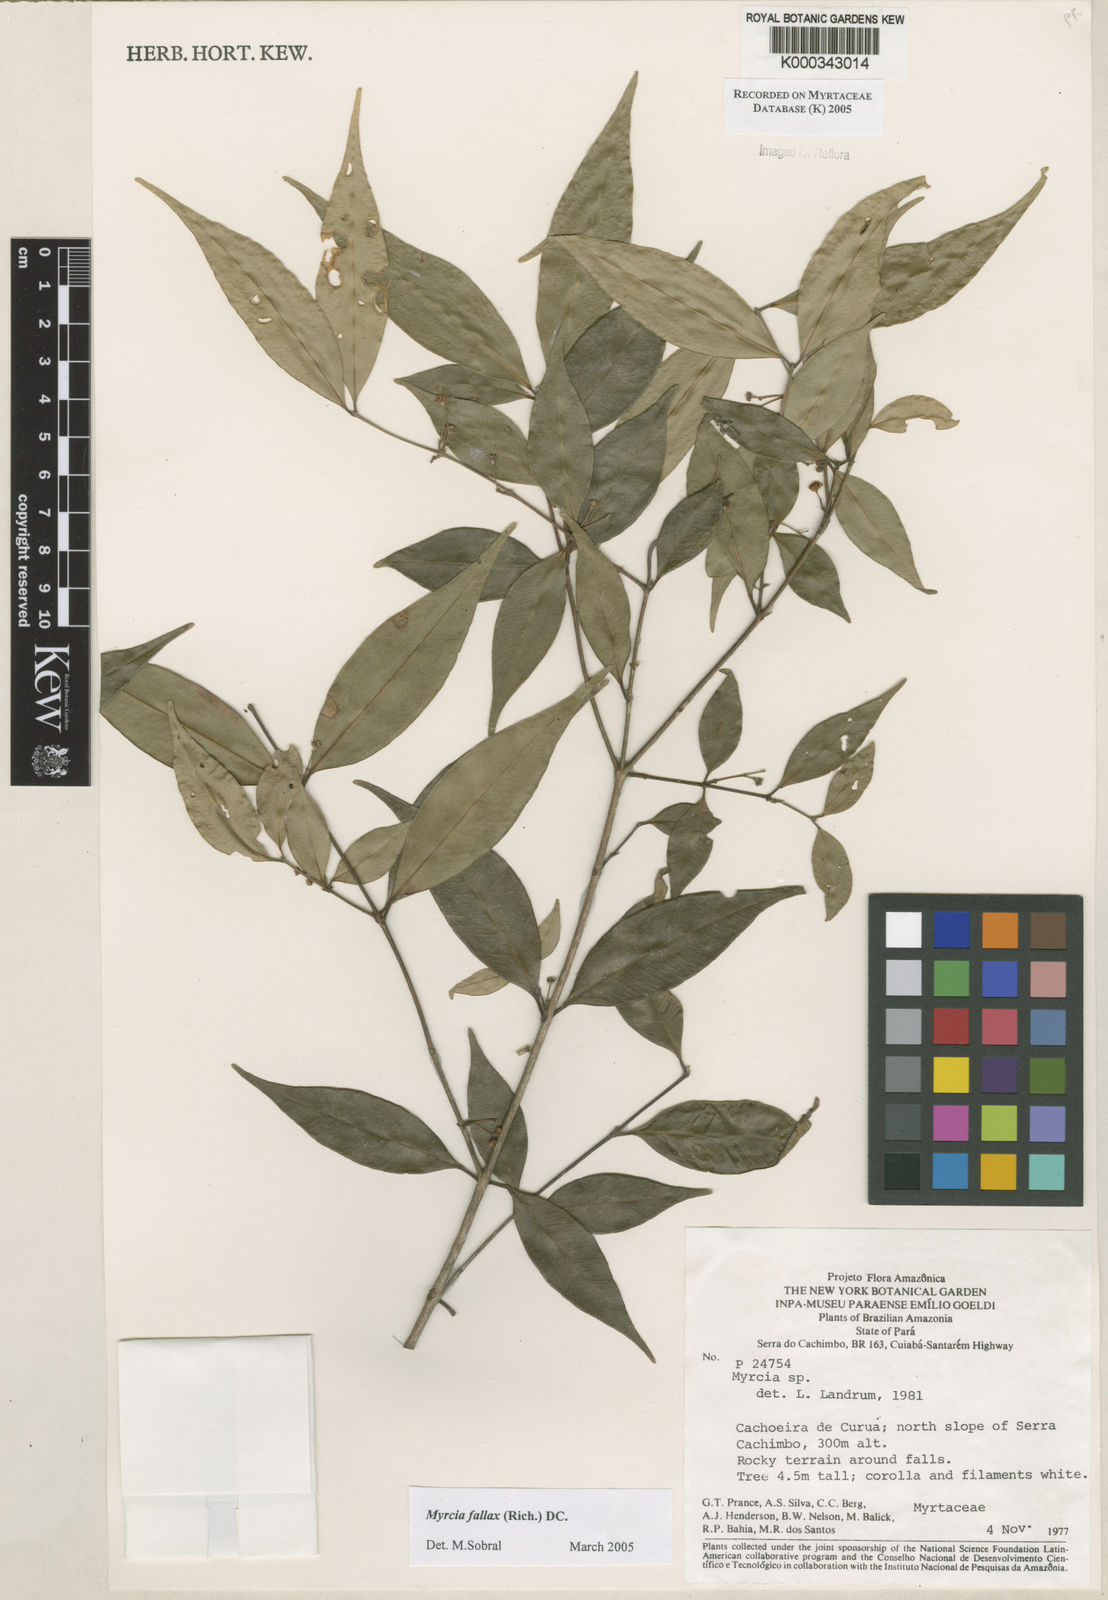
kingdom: Plantae
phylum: Tracheophyta
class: Magnoliopsida
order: Myrtales
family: Myrtaceae
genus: Myrcia
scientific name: Myrcia splendens
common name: Surinam cherry
